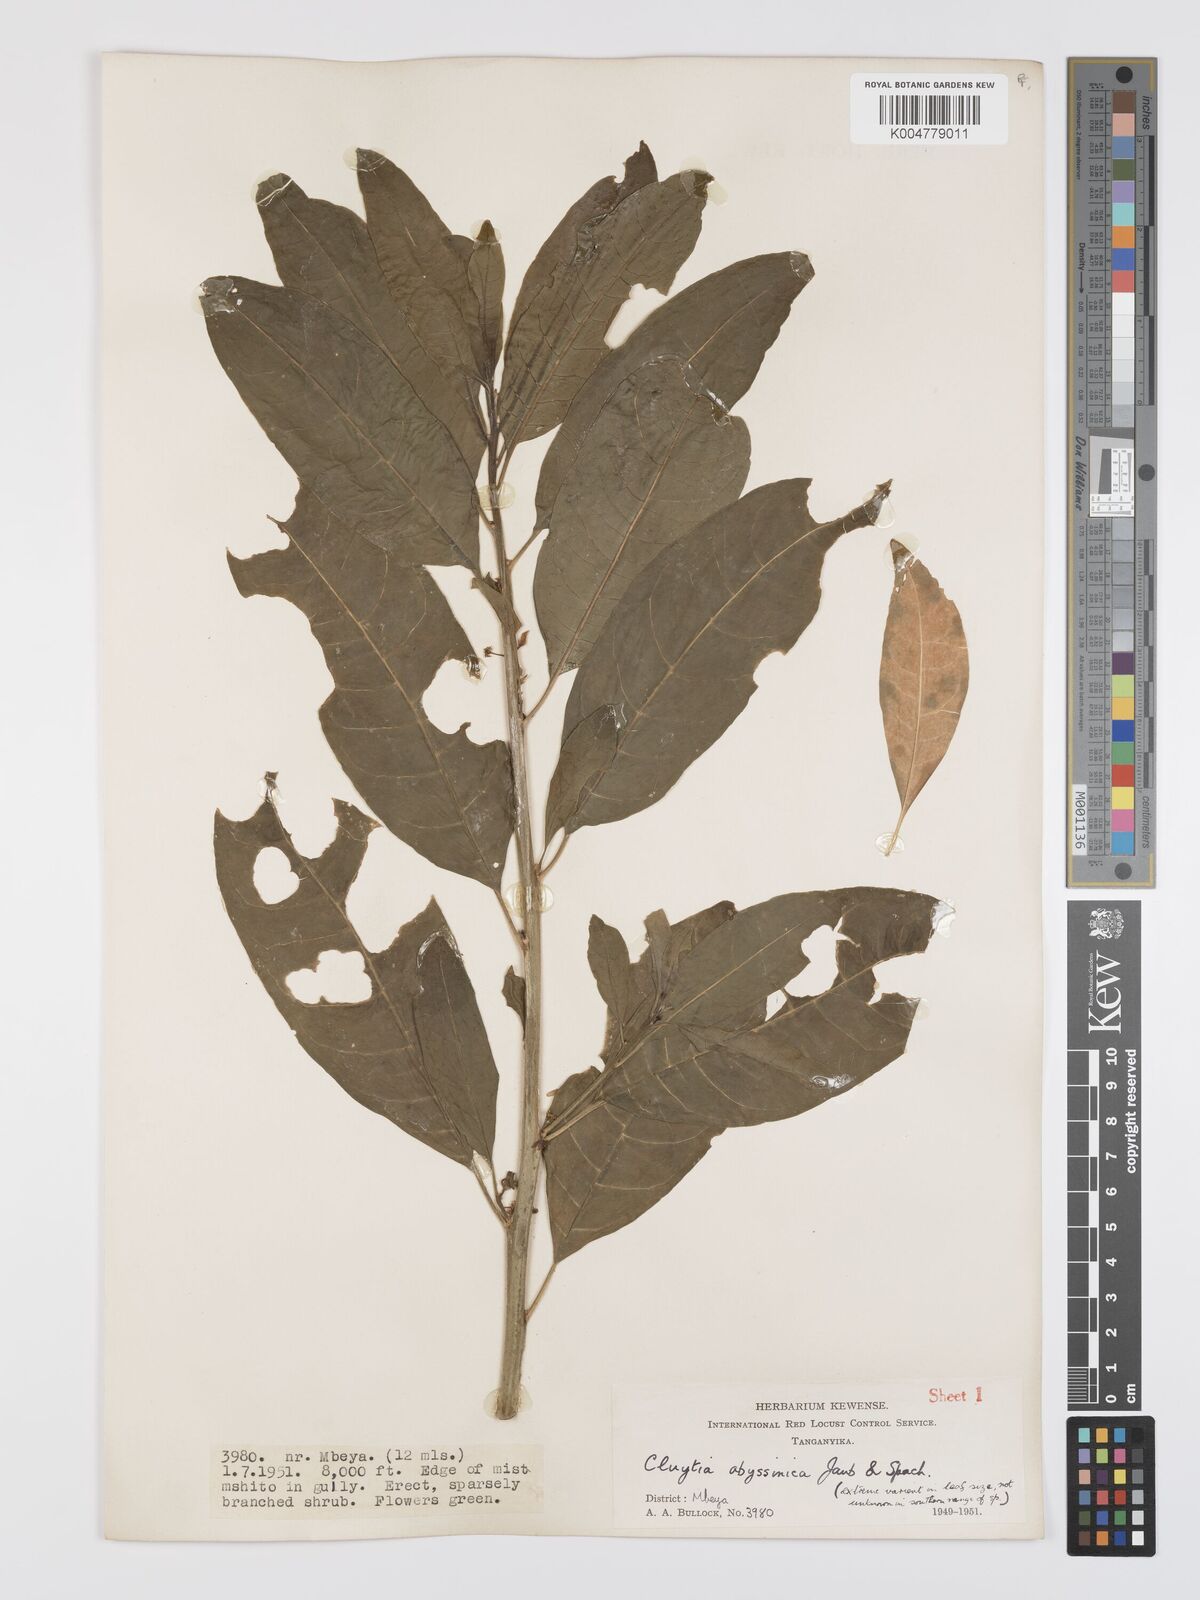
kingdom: Plantae
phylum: Tracheophyta
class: Magnoliopsida
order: Malpighiales
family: Peraceae
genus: Clutia
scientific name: Clutia abyssinica
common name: Large lightning bush
